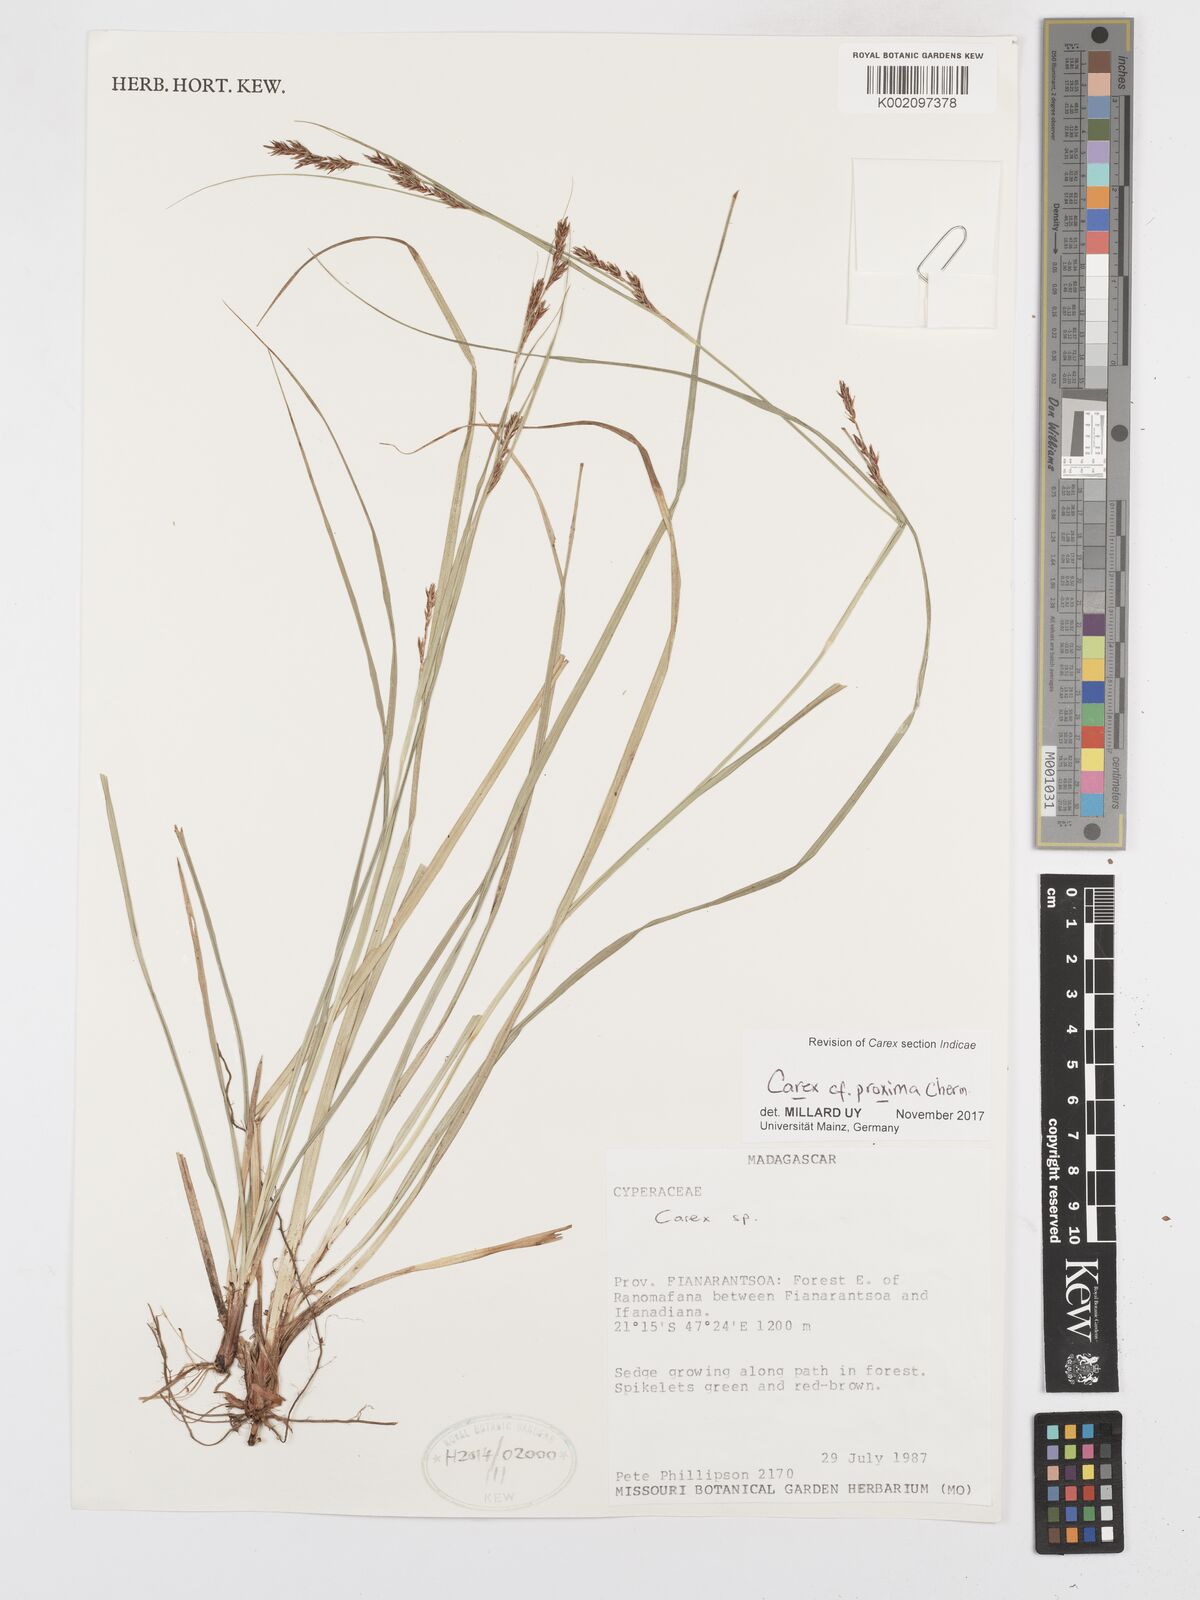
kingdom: Plantae
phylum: Tracheophyta
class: Liliopsida
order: Poales
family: Cyperaceae
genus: Carex
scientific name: Carex proxima
